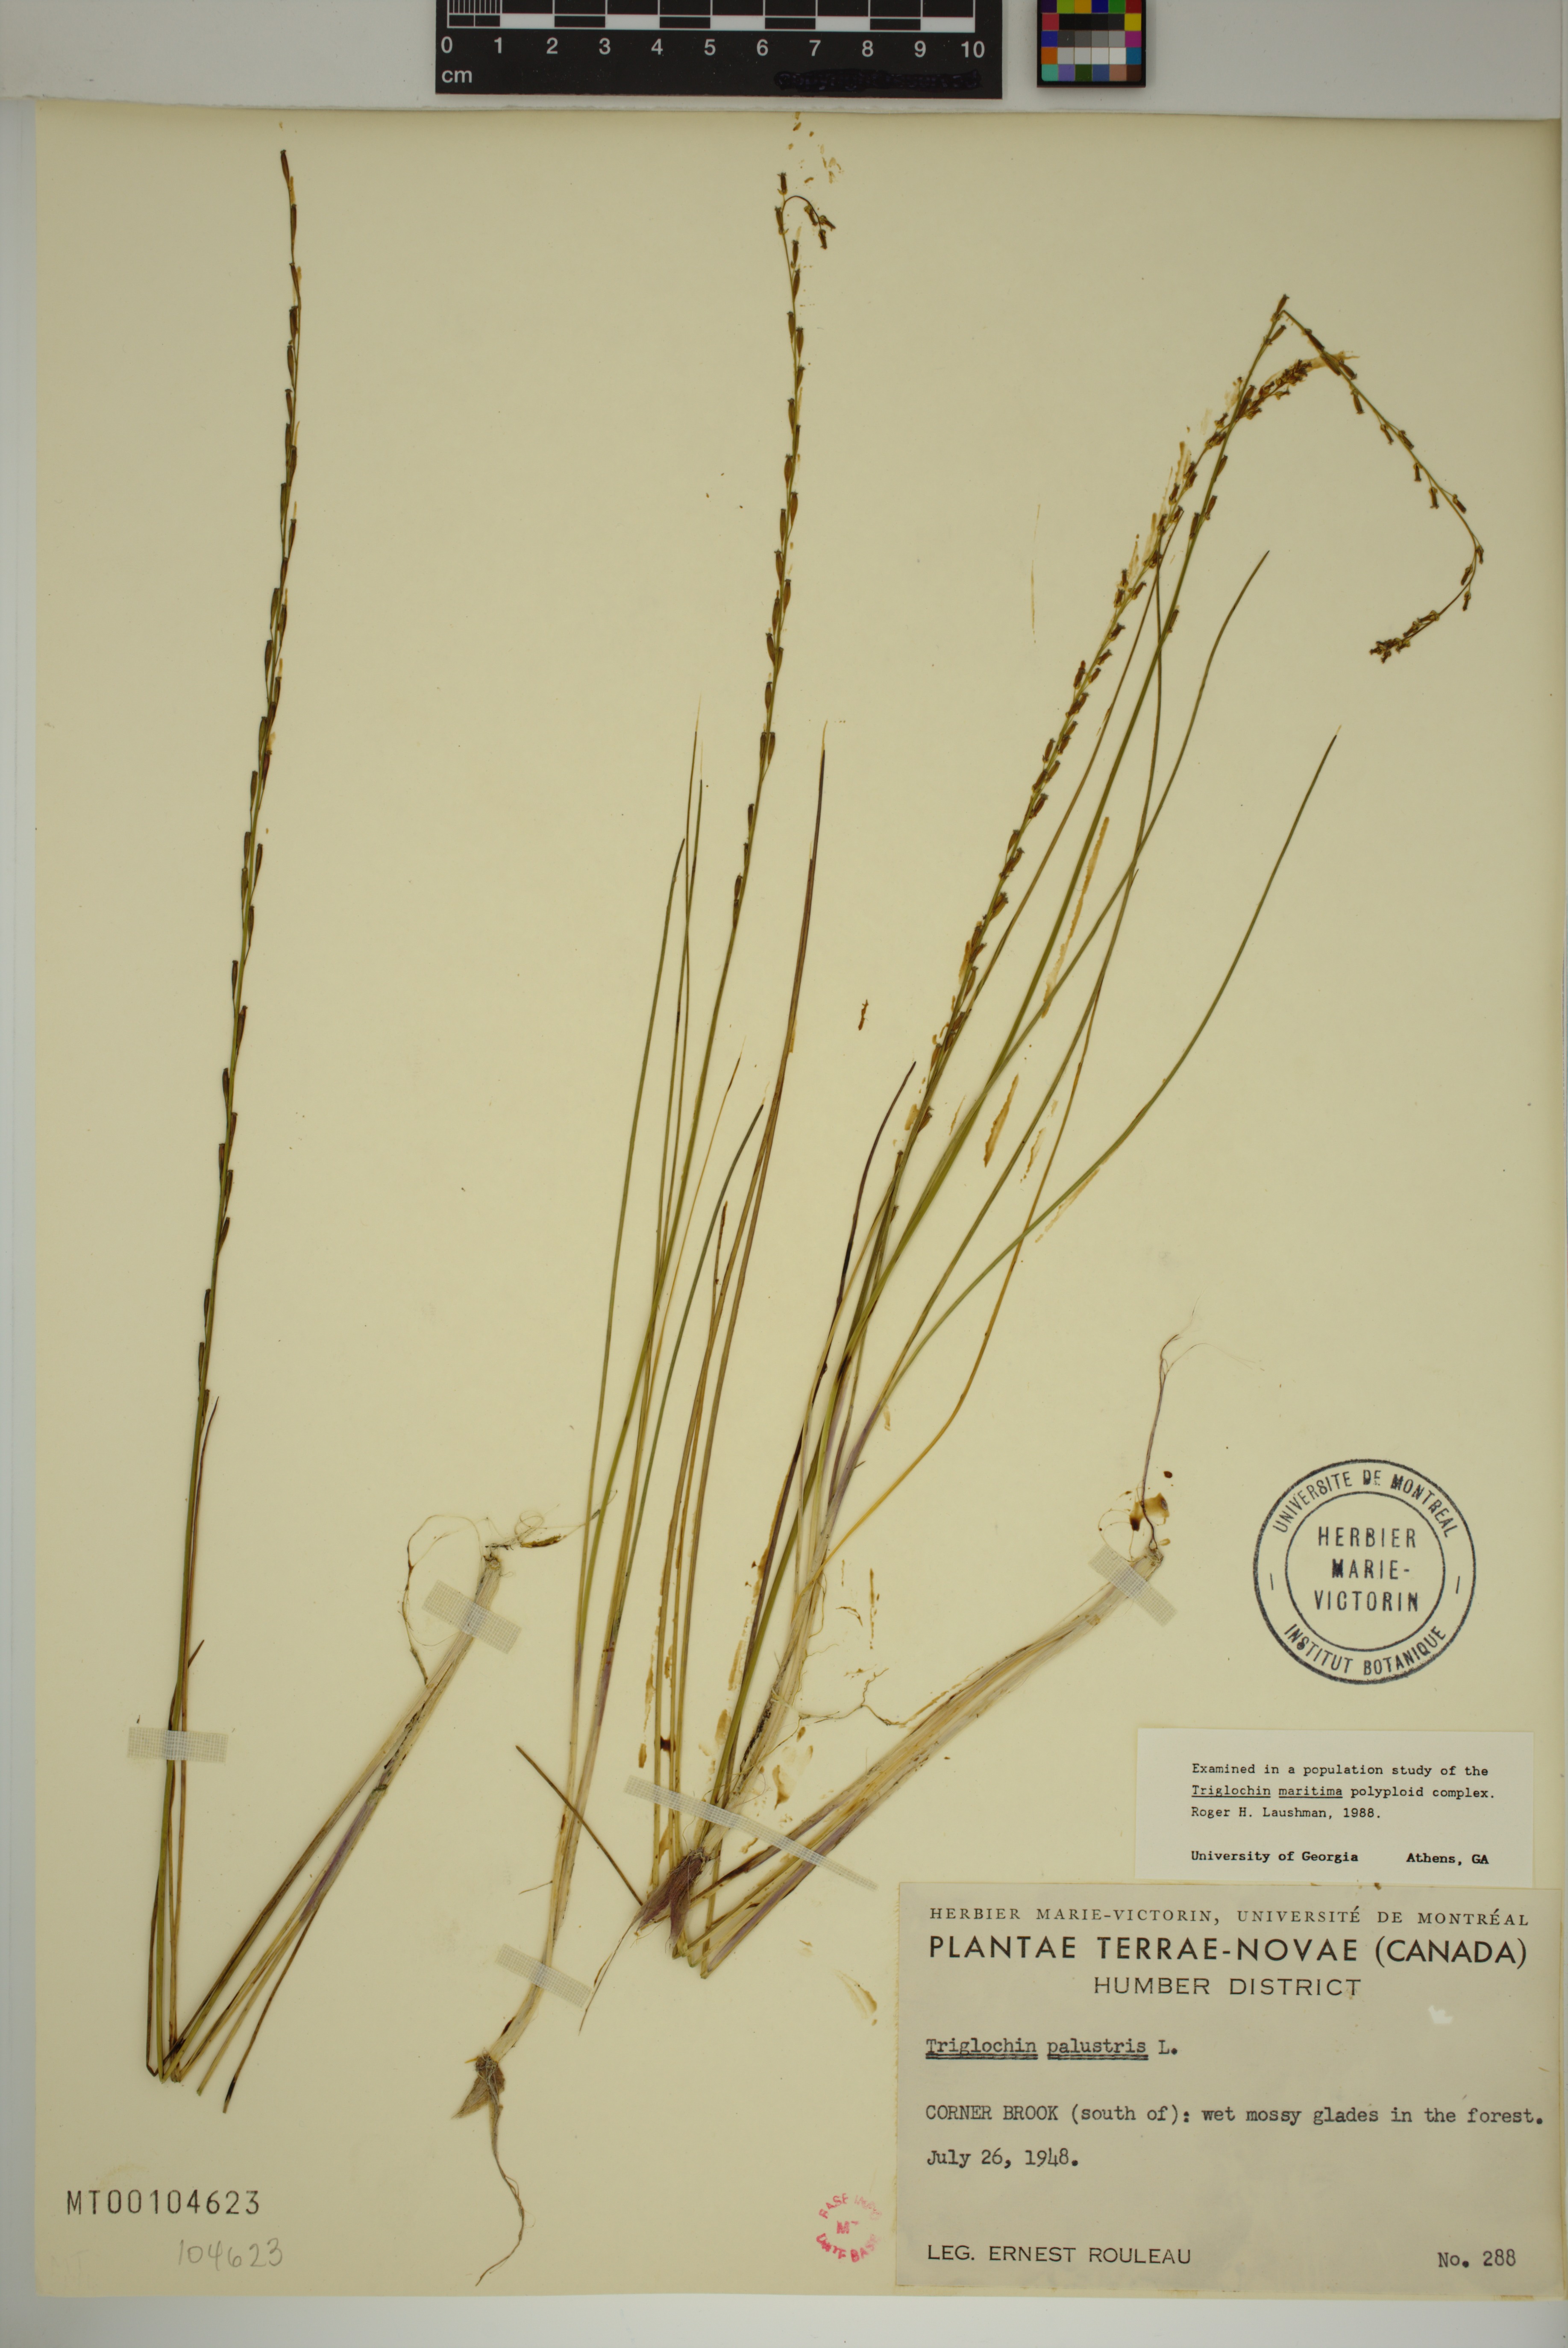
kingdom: Plantae
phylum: Tracheophyta
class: Liliopsida
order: Alismatales
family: Juncaginaceae
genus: Triglochin
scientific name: Triglochin palustris
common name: Marsh arrowgrass
